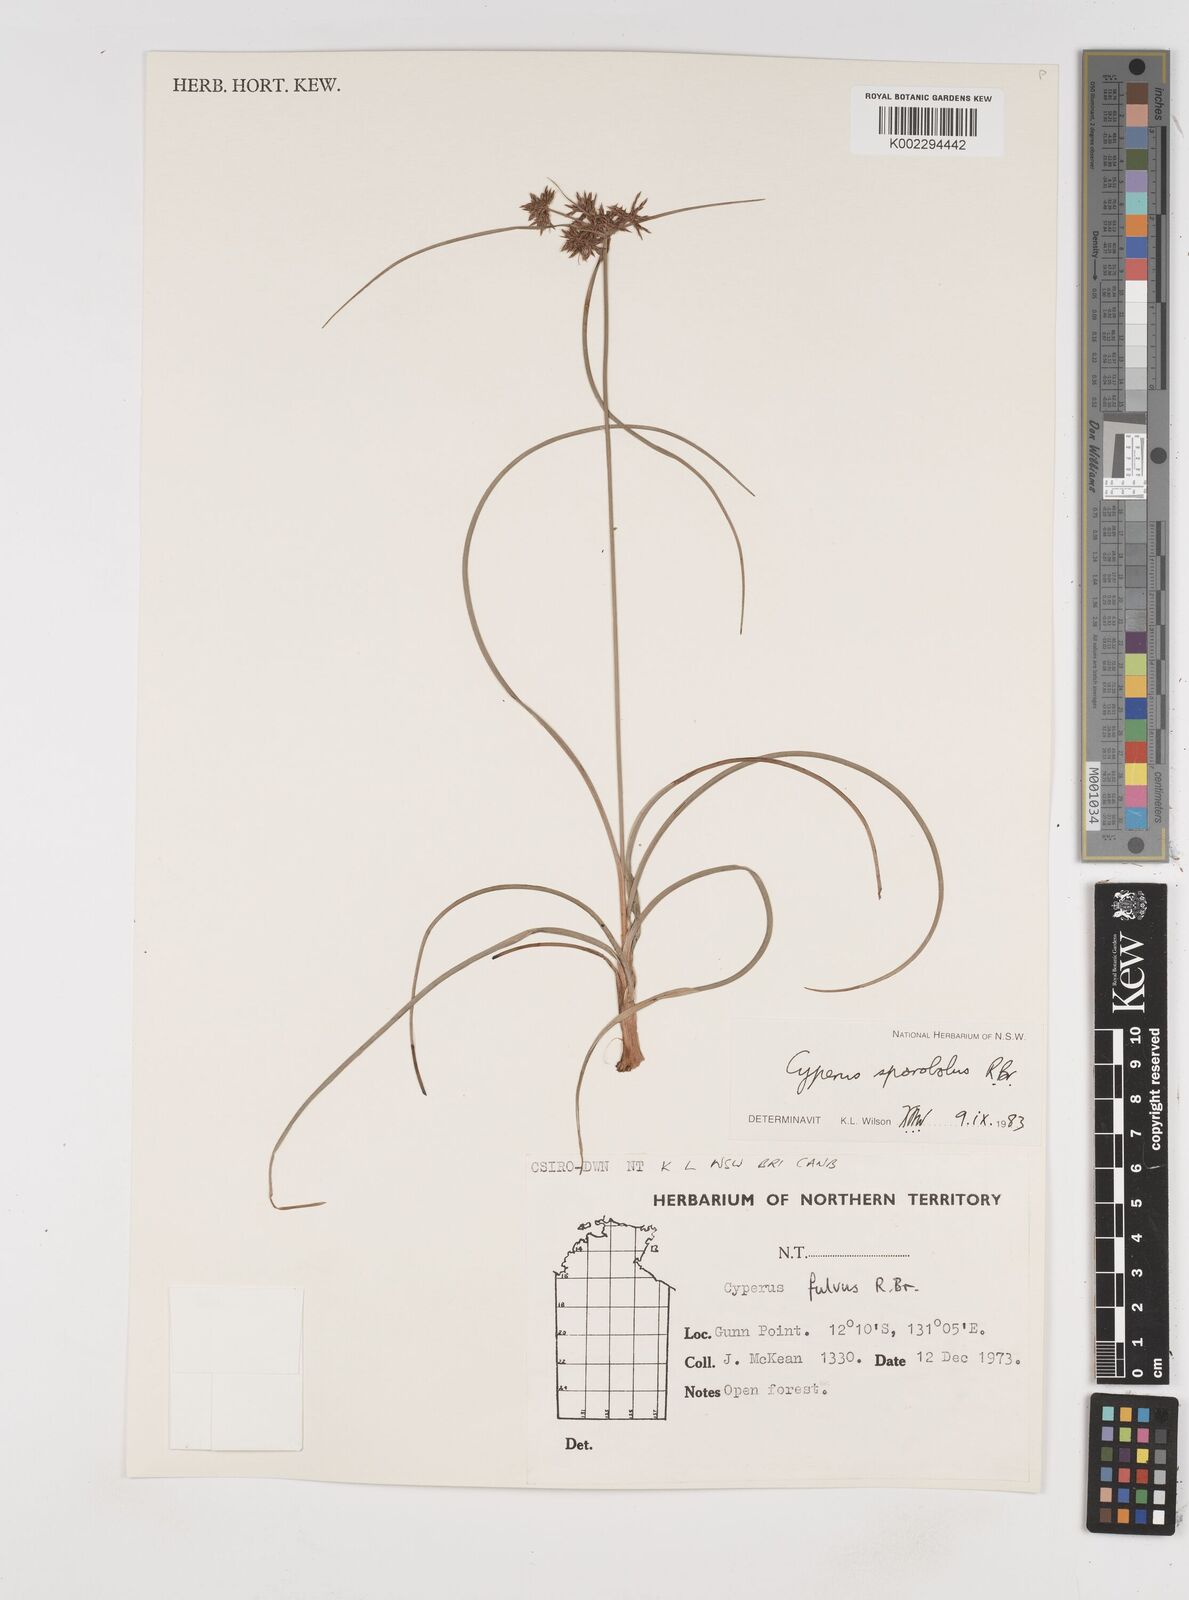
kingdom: Plantae
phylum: Tracheophyta
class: Liliopsida
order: Poales
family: Cyperaceae
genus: Cyperus
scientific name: Cyperus sporobolus
